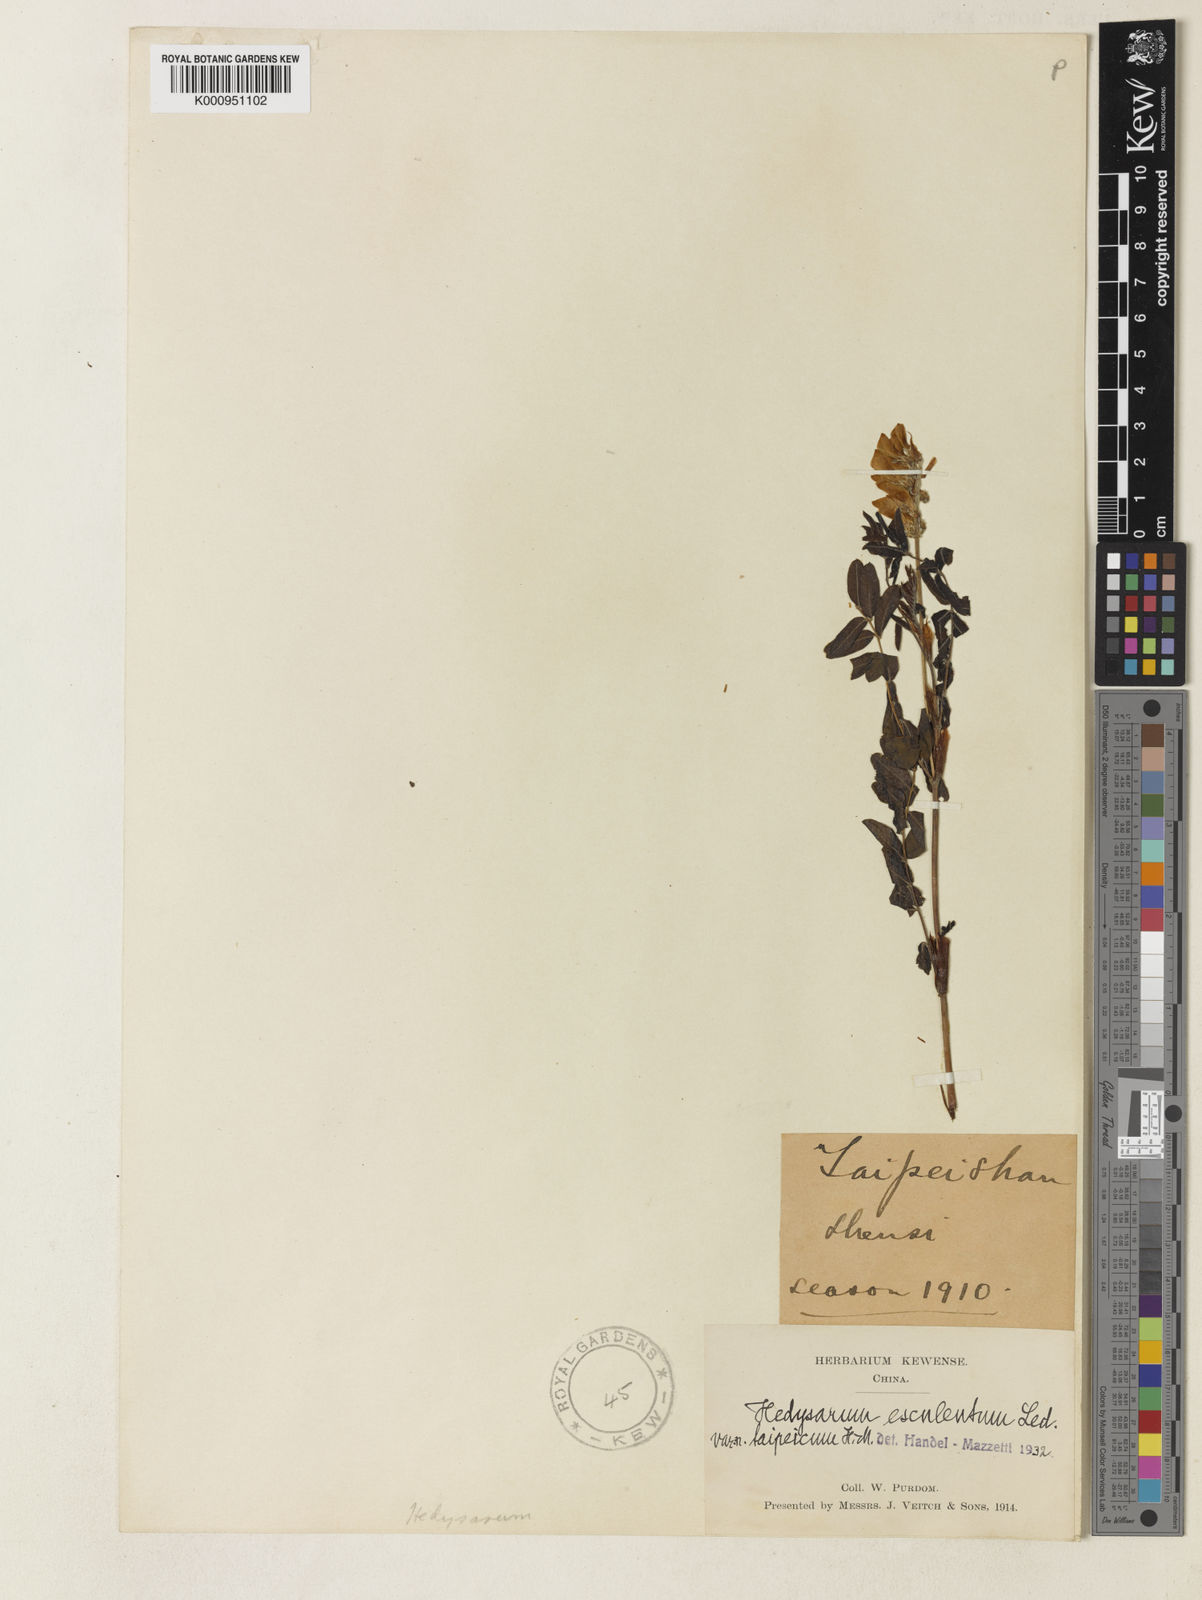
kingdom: Plantae
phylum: Tracheophyta
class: Magnoliopsida
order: Fabales
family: Fabaceae
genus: Hedysarum
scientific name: Hedysarum vicioides
